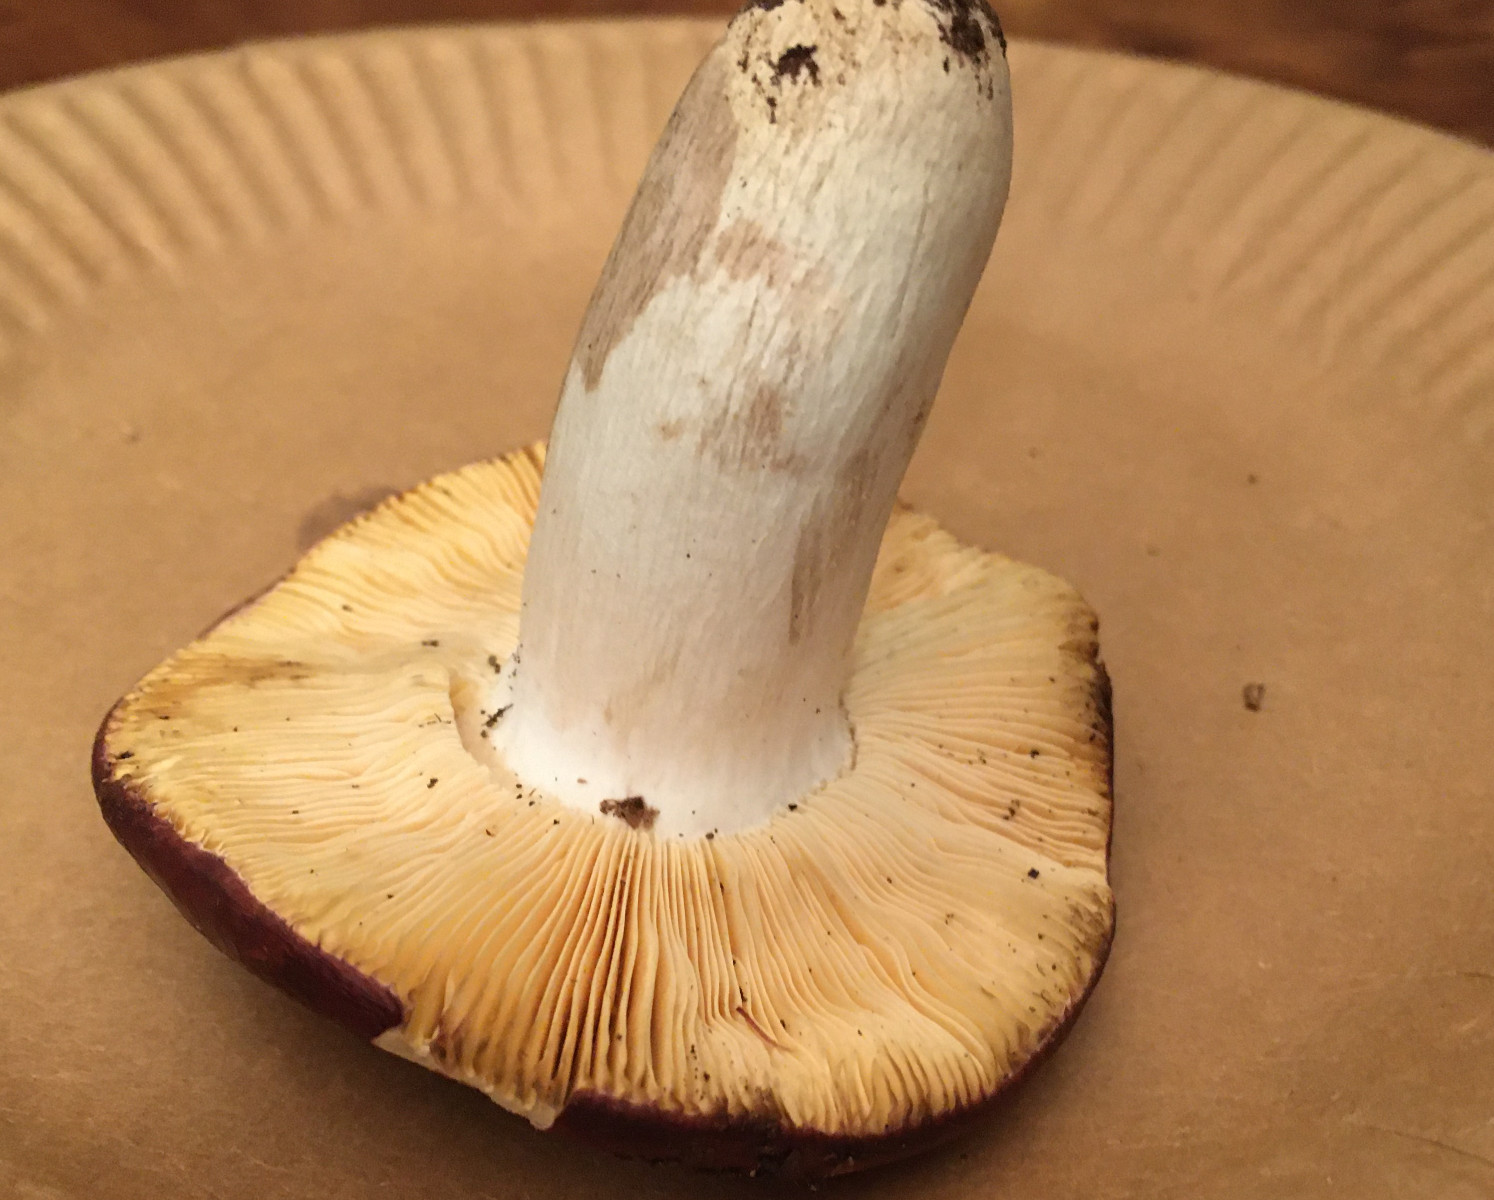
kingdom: Fungi
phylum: Basidiomycota
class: Agaricomycetes
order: Russulales
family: Russulaceae
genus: Russula
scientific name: Russula decipiens
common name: grånende skørhat
